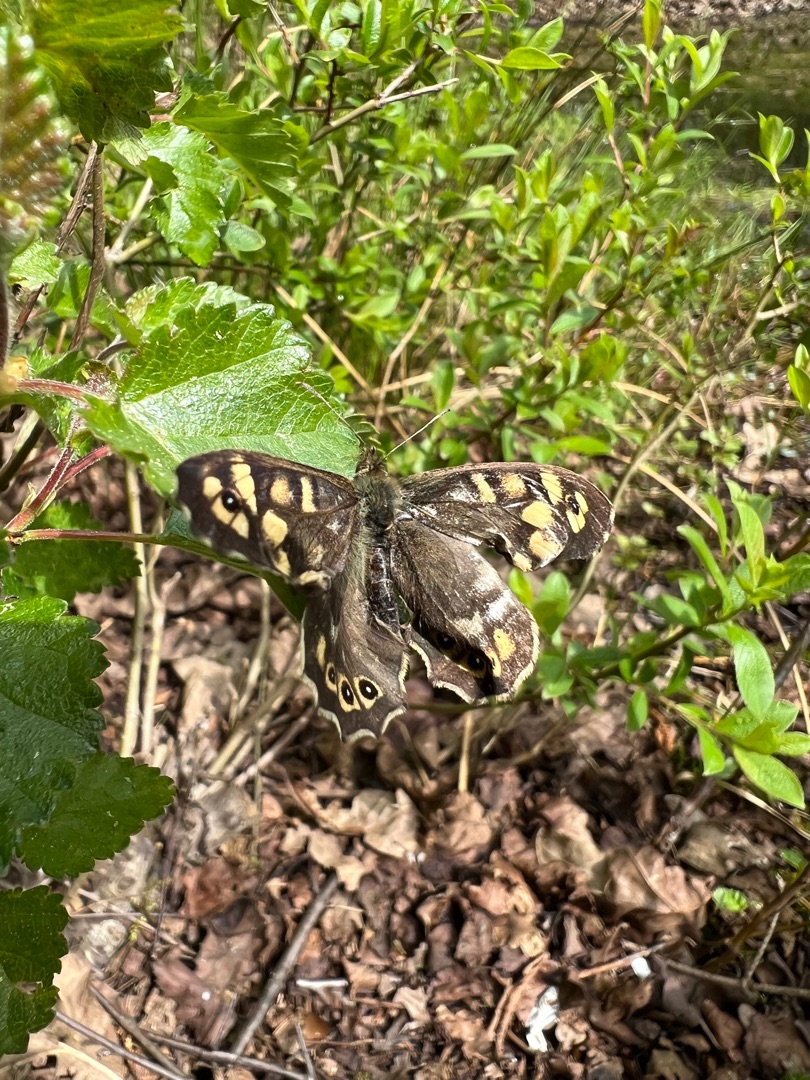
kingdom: Animalia
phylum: Arthropoda
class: Insecta
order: Lepidoptera
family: Nymphalidae
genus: Pararge
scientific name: Pararge aegeria
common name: Skovrandøje
